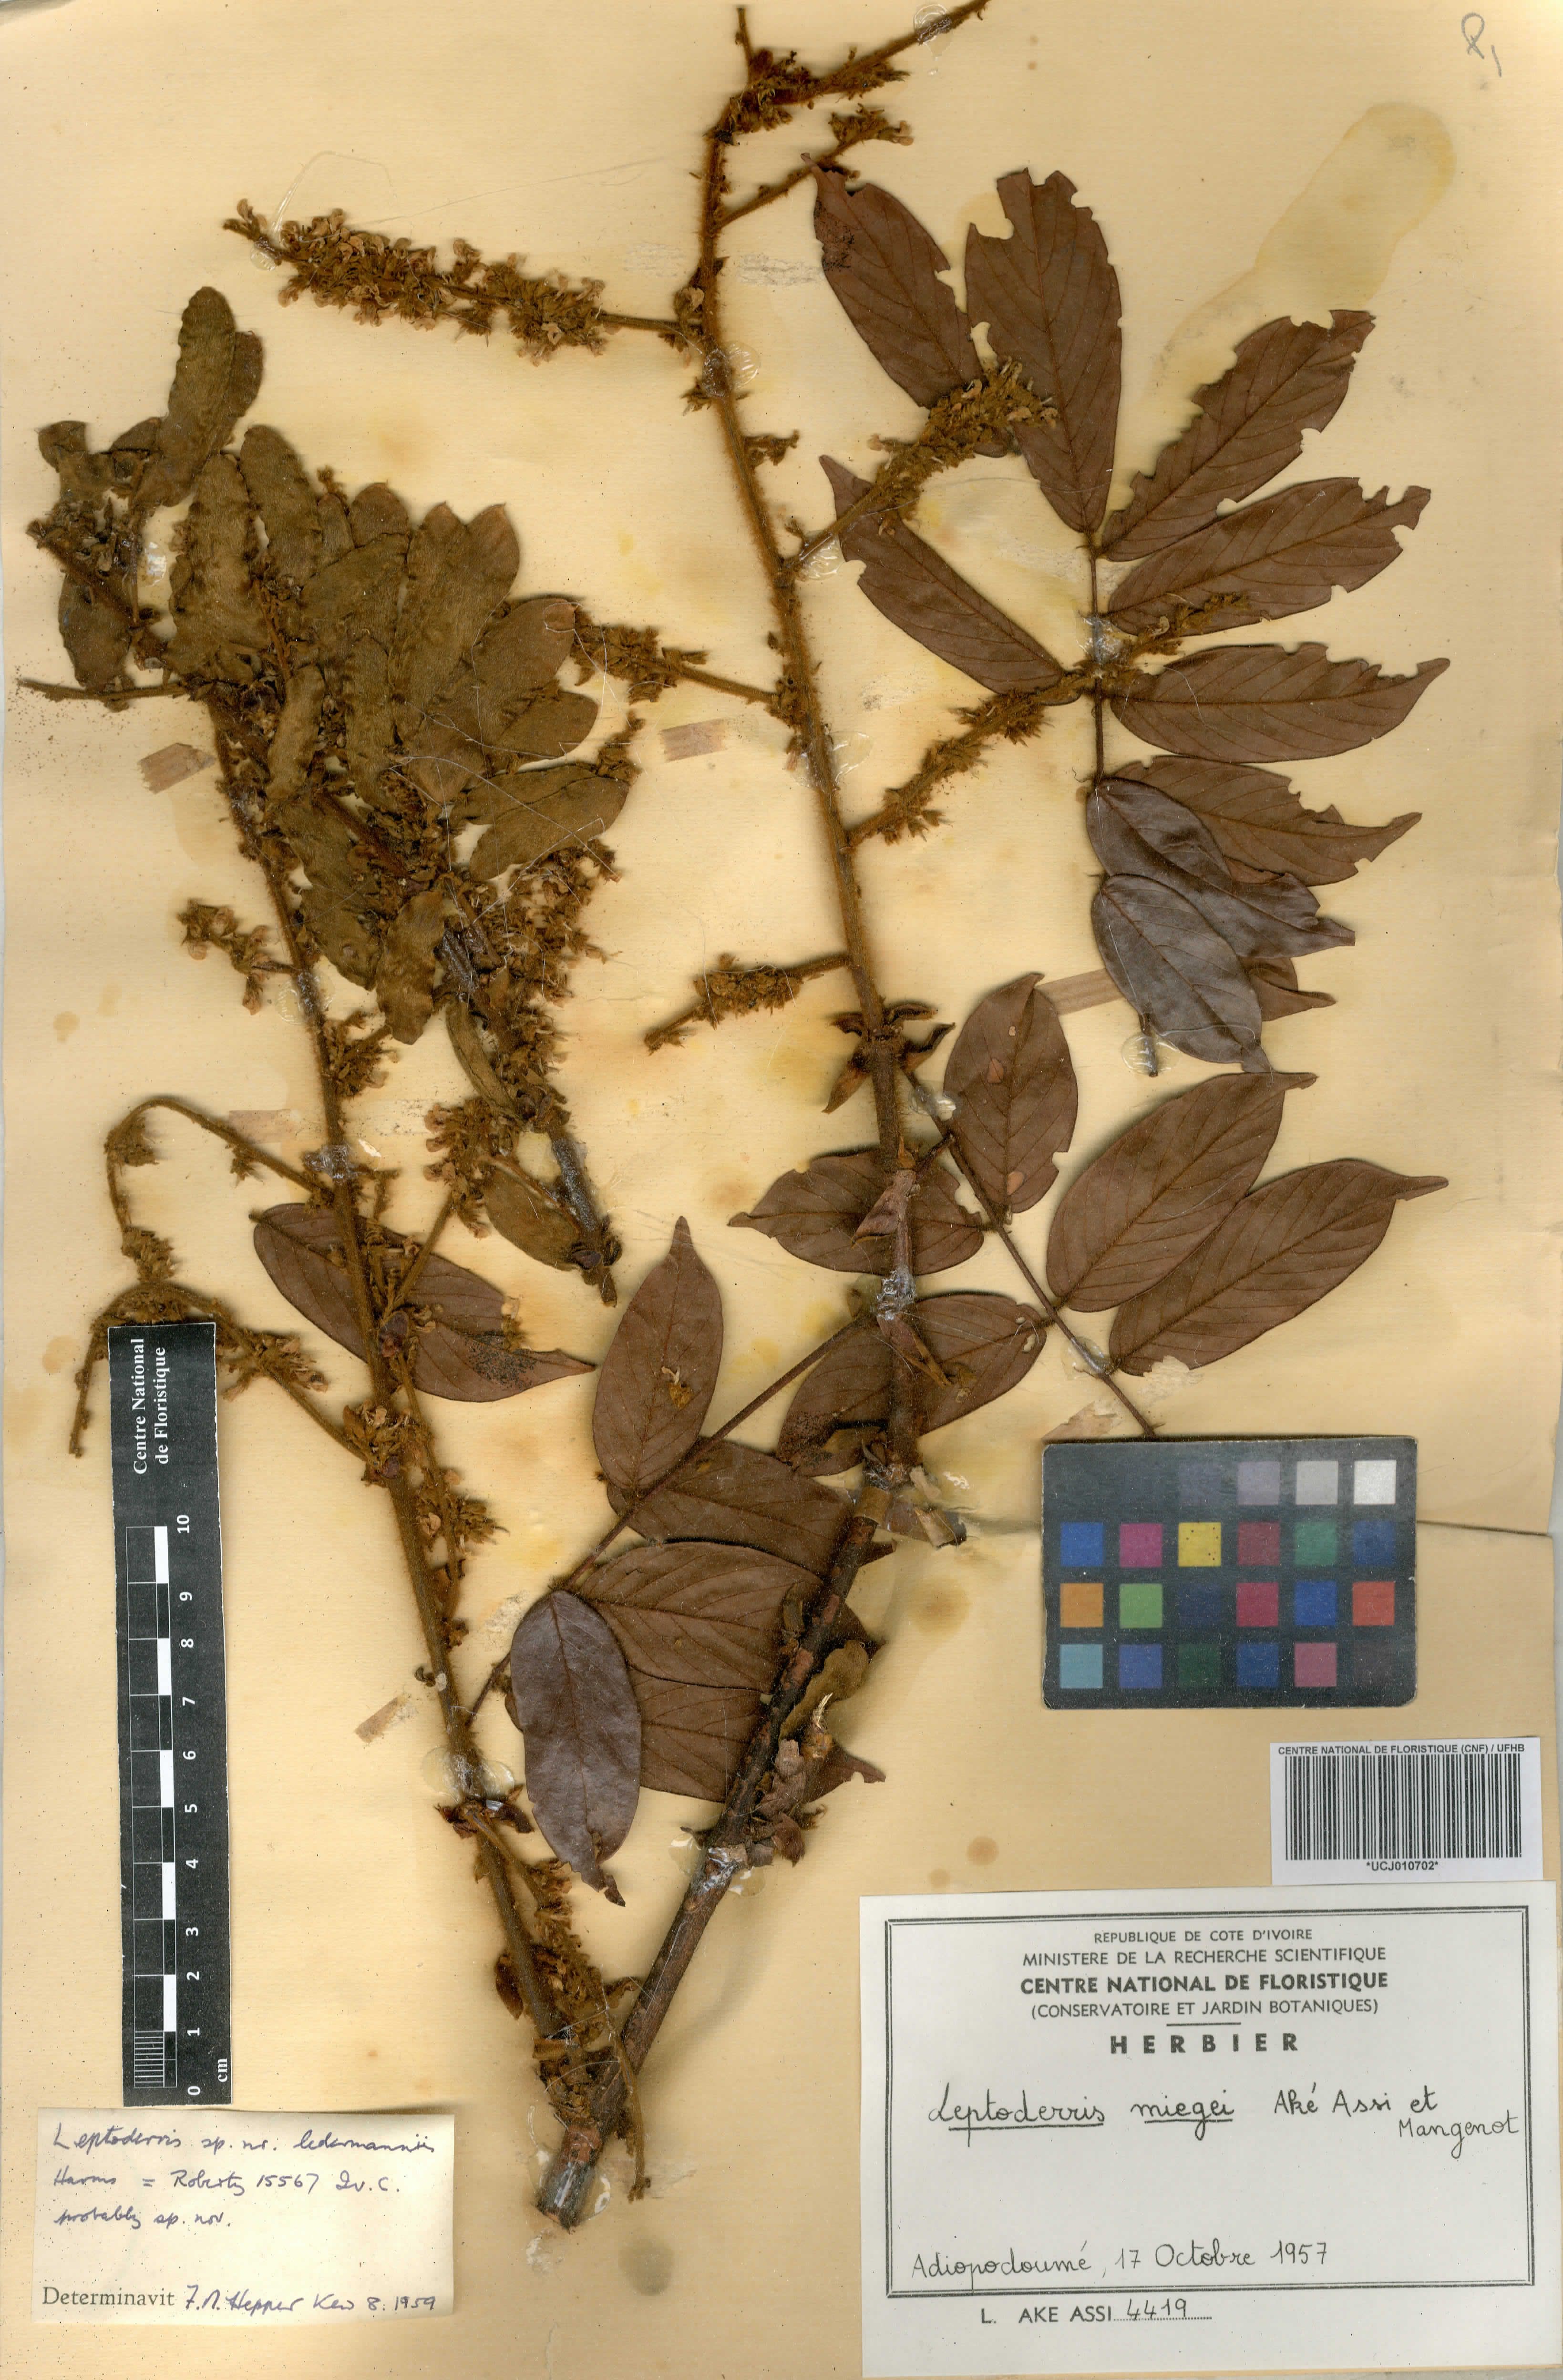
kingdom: Plantae
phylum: Tracheophyta
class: Magnoliopsida
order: Fabales
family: Fabaceae
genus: Leptoderris
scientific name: Leptoderris miegei
